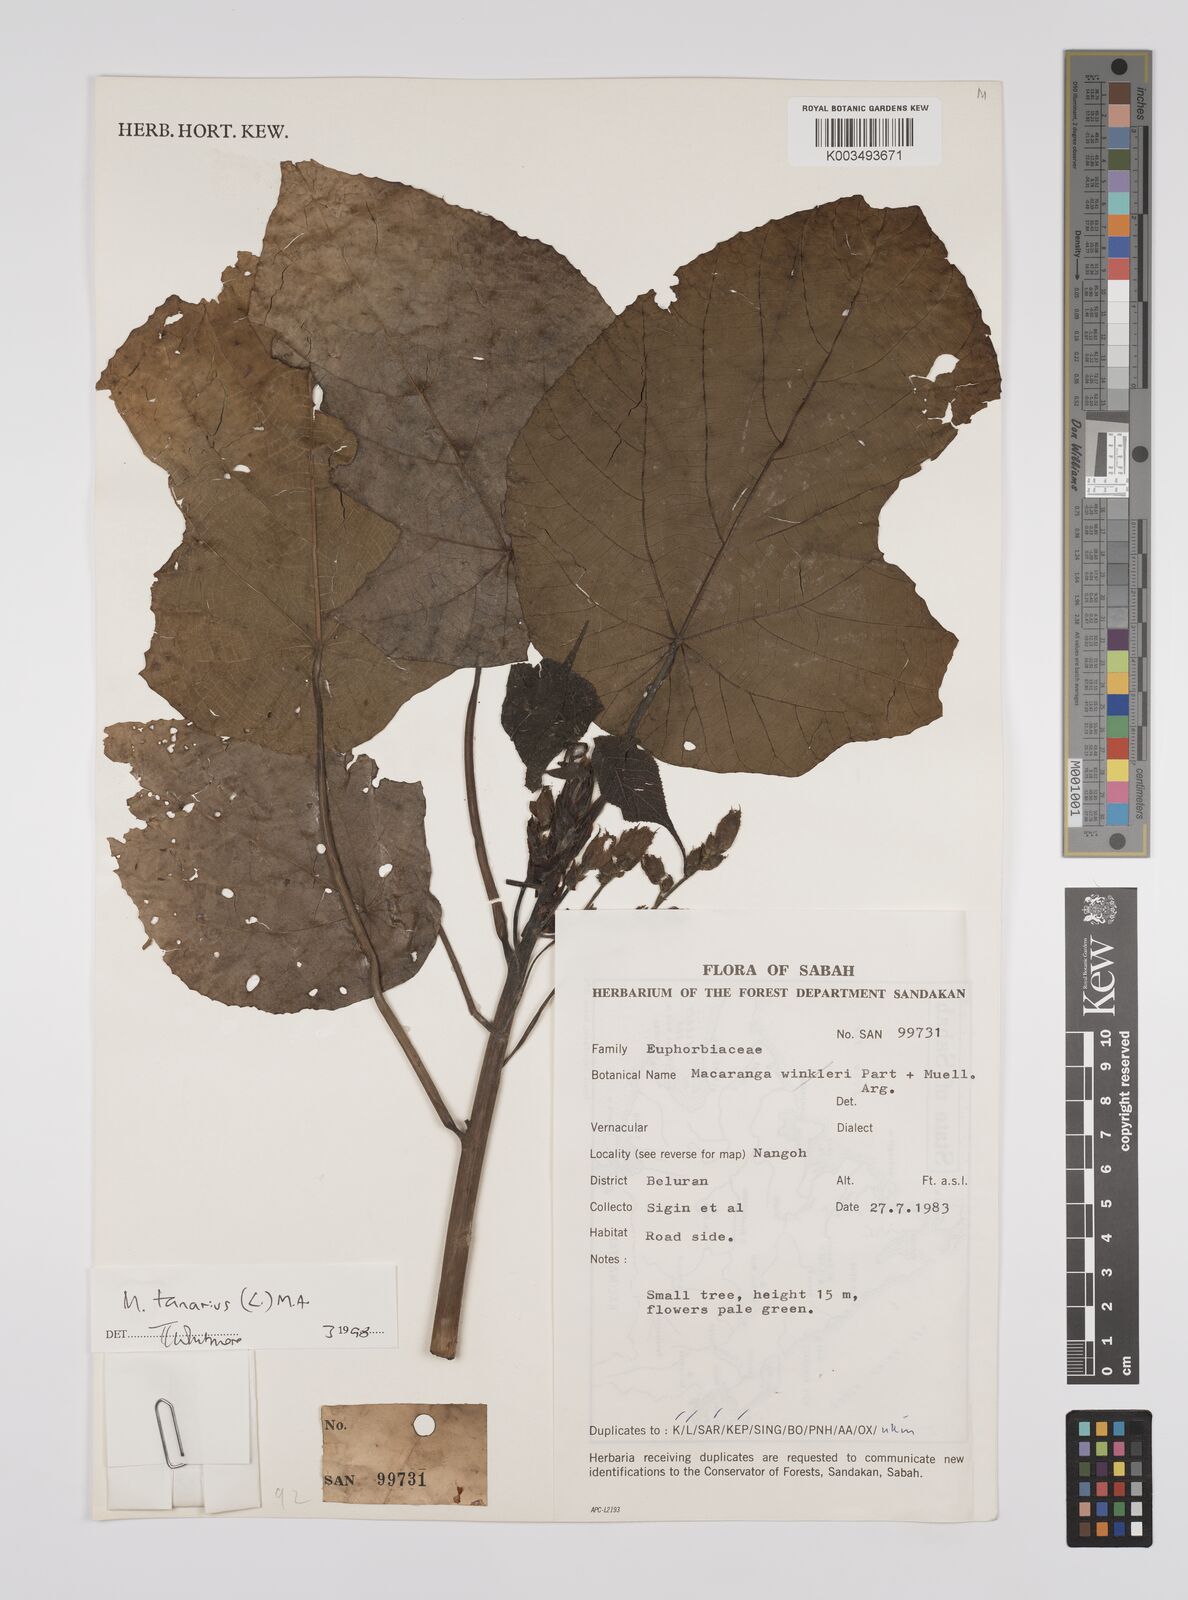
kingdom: Plantae
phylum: Tracheophyta
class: Magnoliopsida
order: Malpighiales
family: Euphorbiaceae
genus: Macaranga
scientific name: Macaranga tanarius
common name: Parasol leaf tree
